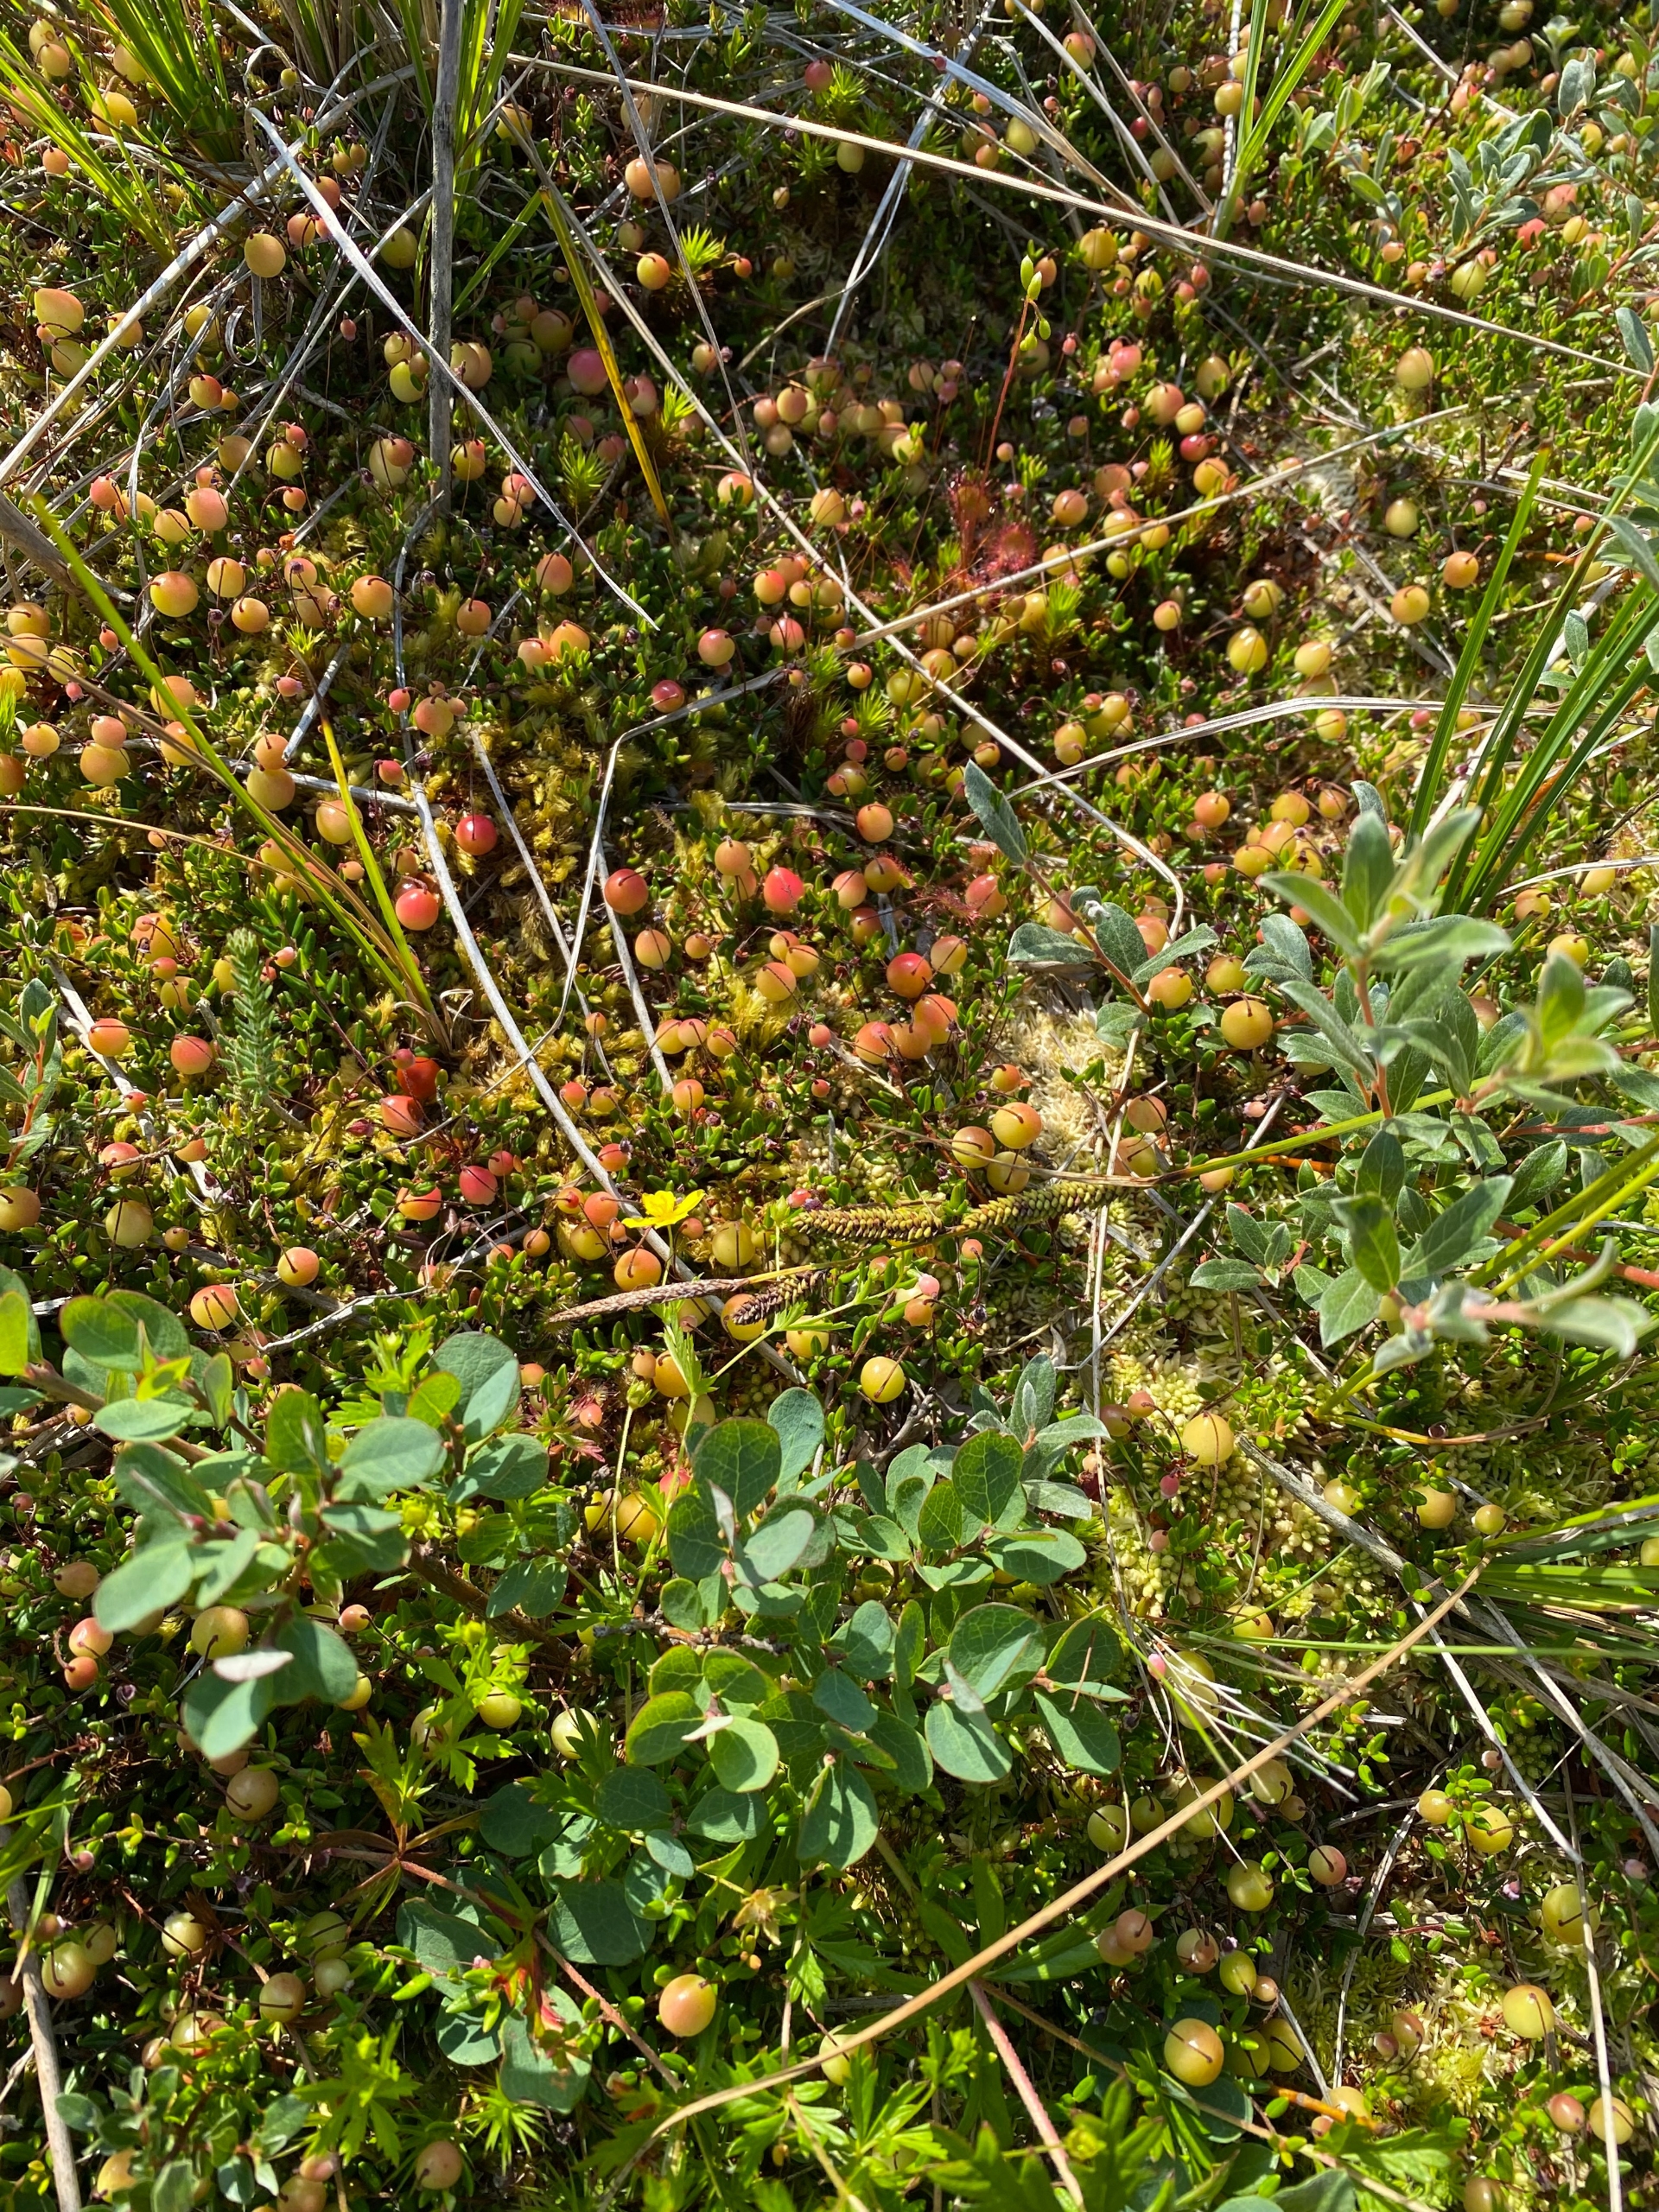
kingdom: Plantae
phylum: Tracheophyta
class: Magnoliopsida
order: Ericales
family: Ericaceae
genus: Vaccinium
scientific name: Vaccinium oxycoccos
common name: Tranebær
